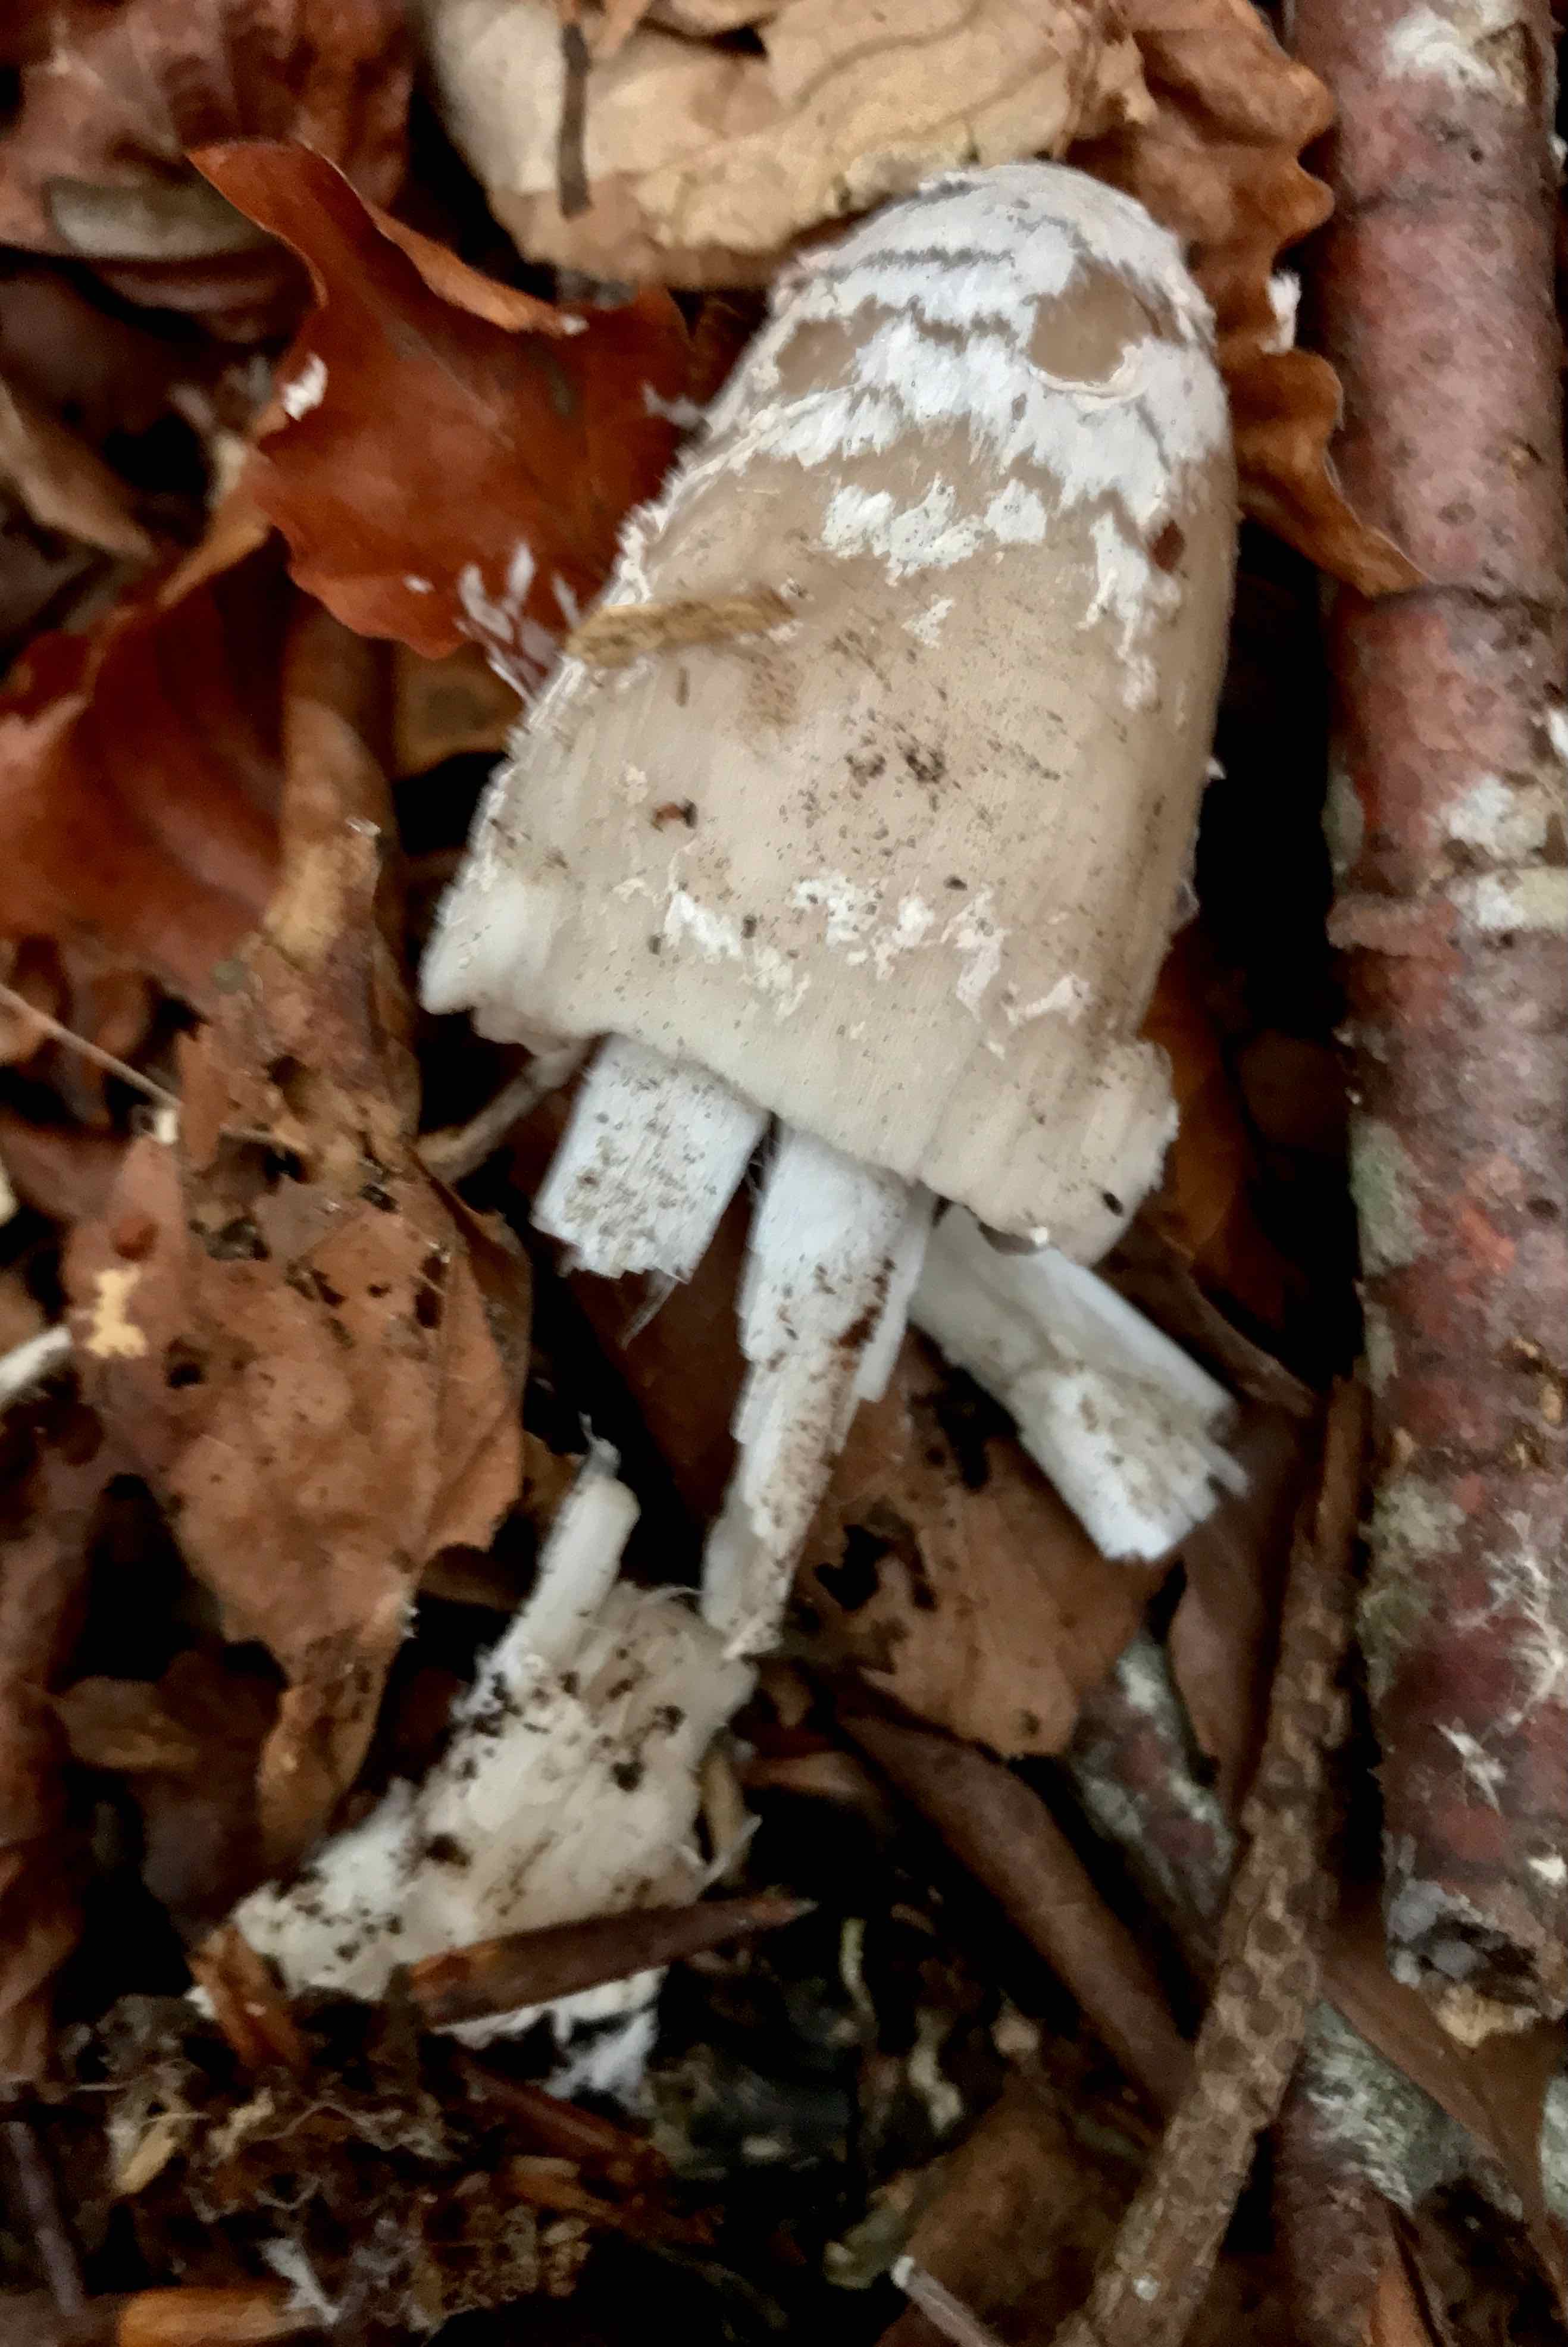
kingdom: Fungi
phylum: Basidiomycota
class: Agaricomycetes
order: Agaricales
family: Psathyrellaceae
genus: Coprinopsis
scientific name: Coprinopsis picacea
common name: skade-blækhat
